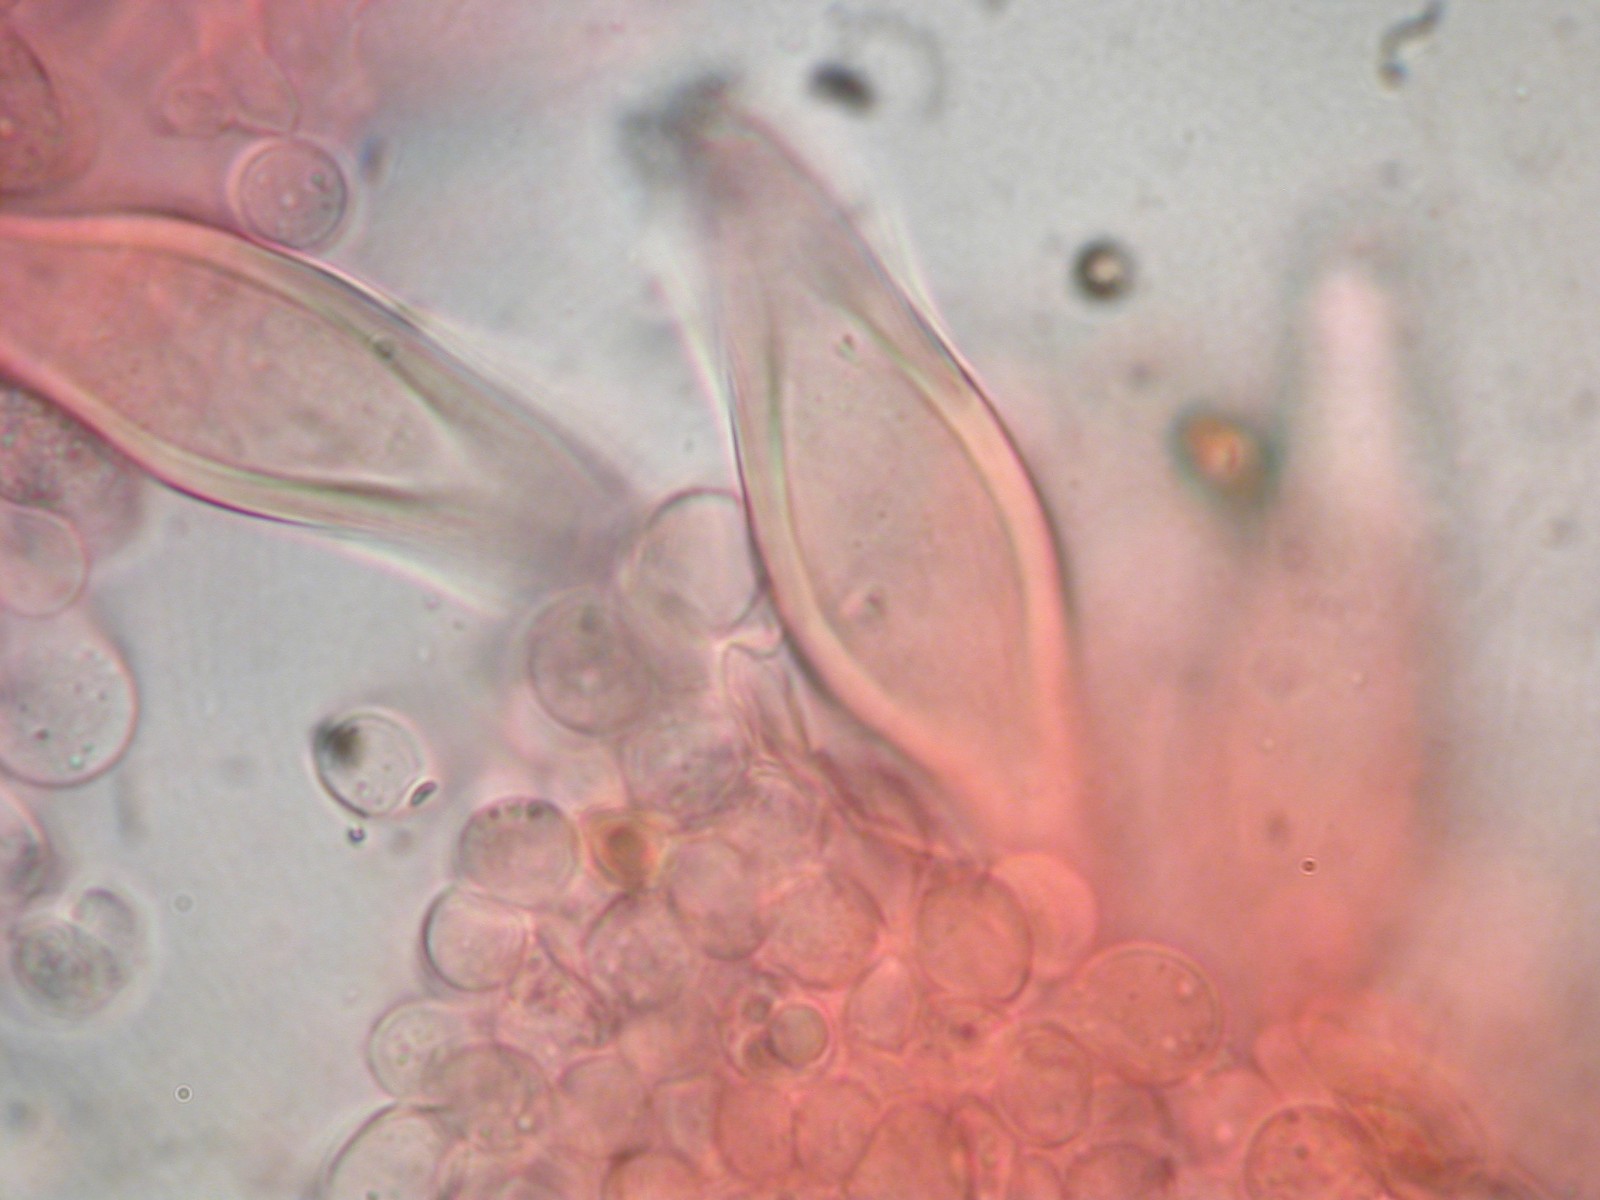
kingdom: Fungi
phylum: Basidiomycota
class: Agaricomycetes
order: Agaricales
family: Inocybaceae
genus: Inocybe
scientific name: Inocybe sambucina
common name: hyldehvid trævlhat
